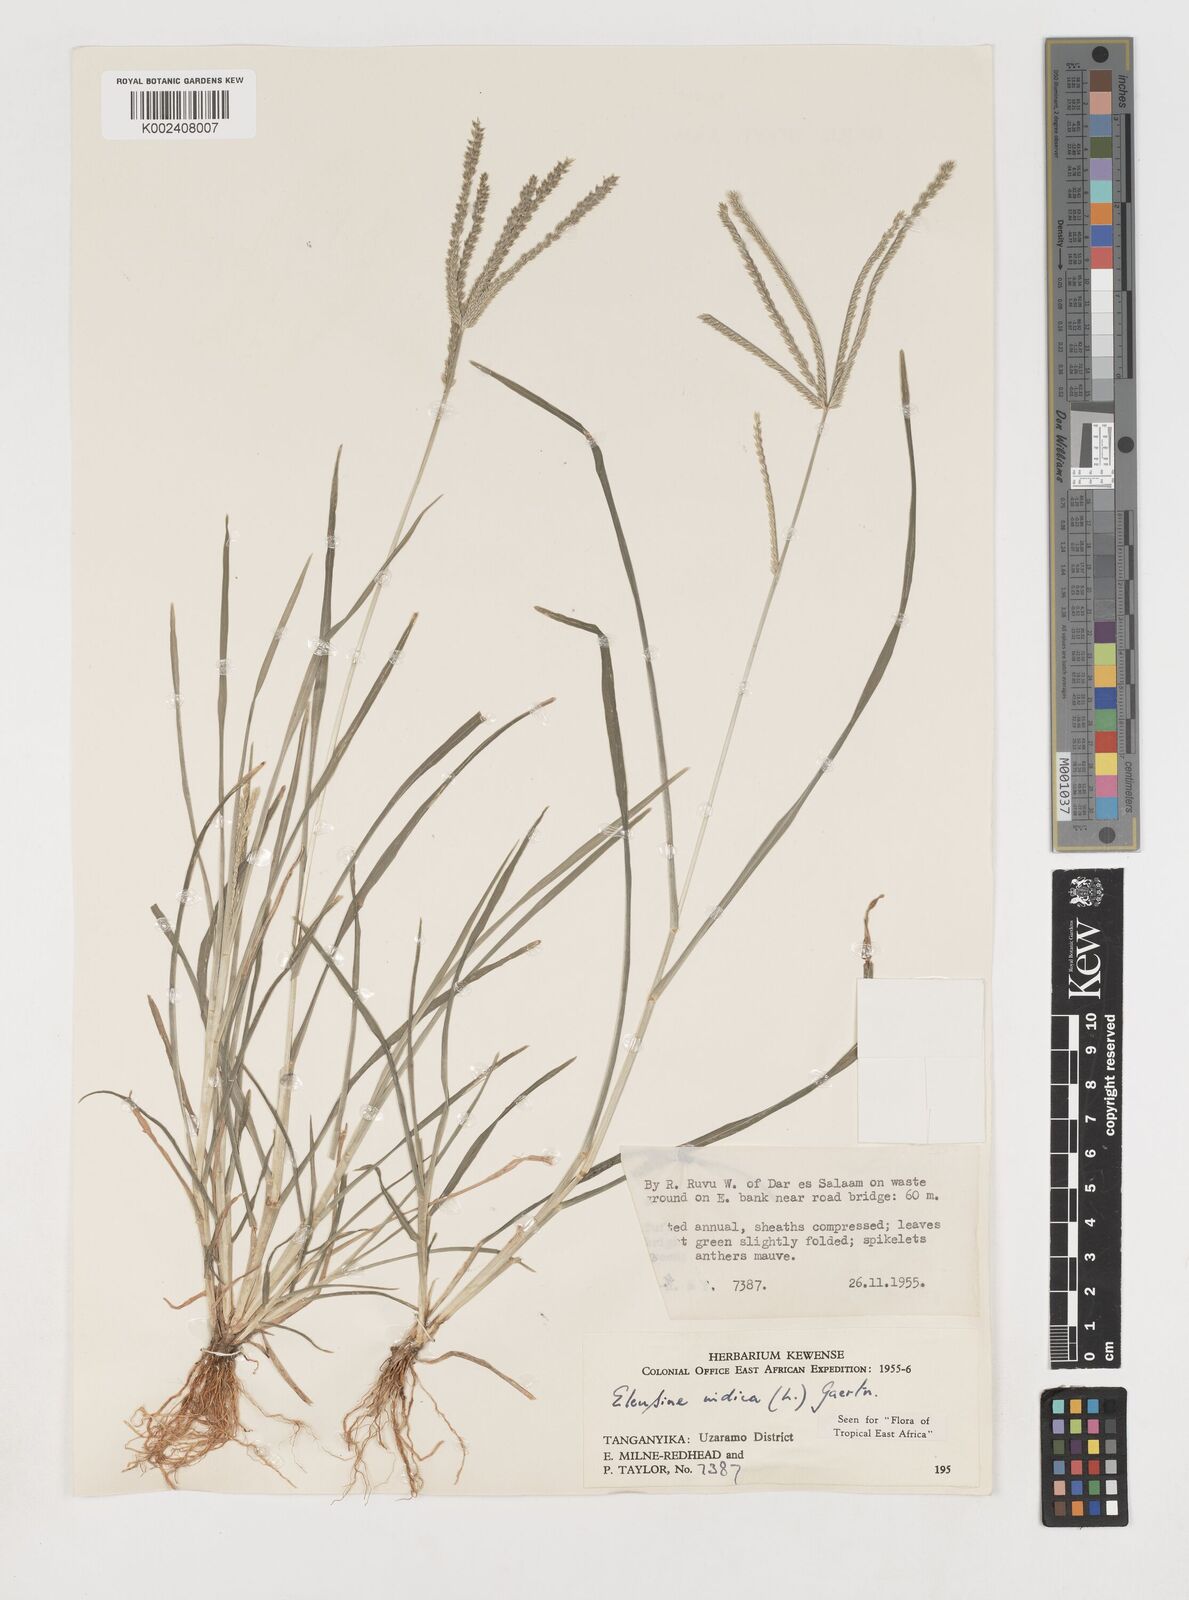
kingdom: Plantae
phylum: Tracheophyta
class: Liliopsida
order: Poales
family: Poaceae
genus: Eleusine
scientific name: Eleusine indica
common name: Yard-grass
